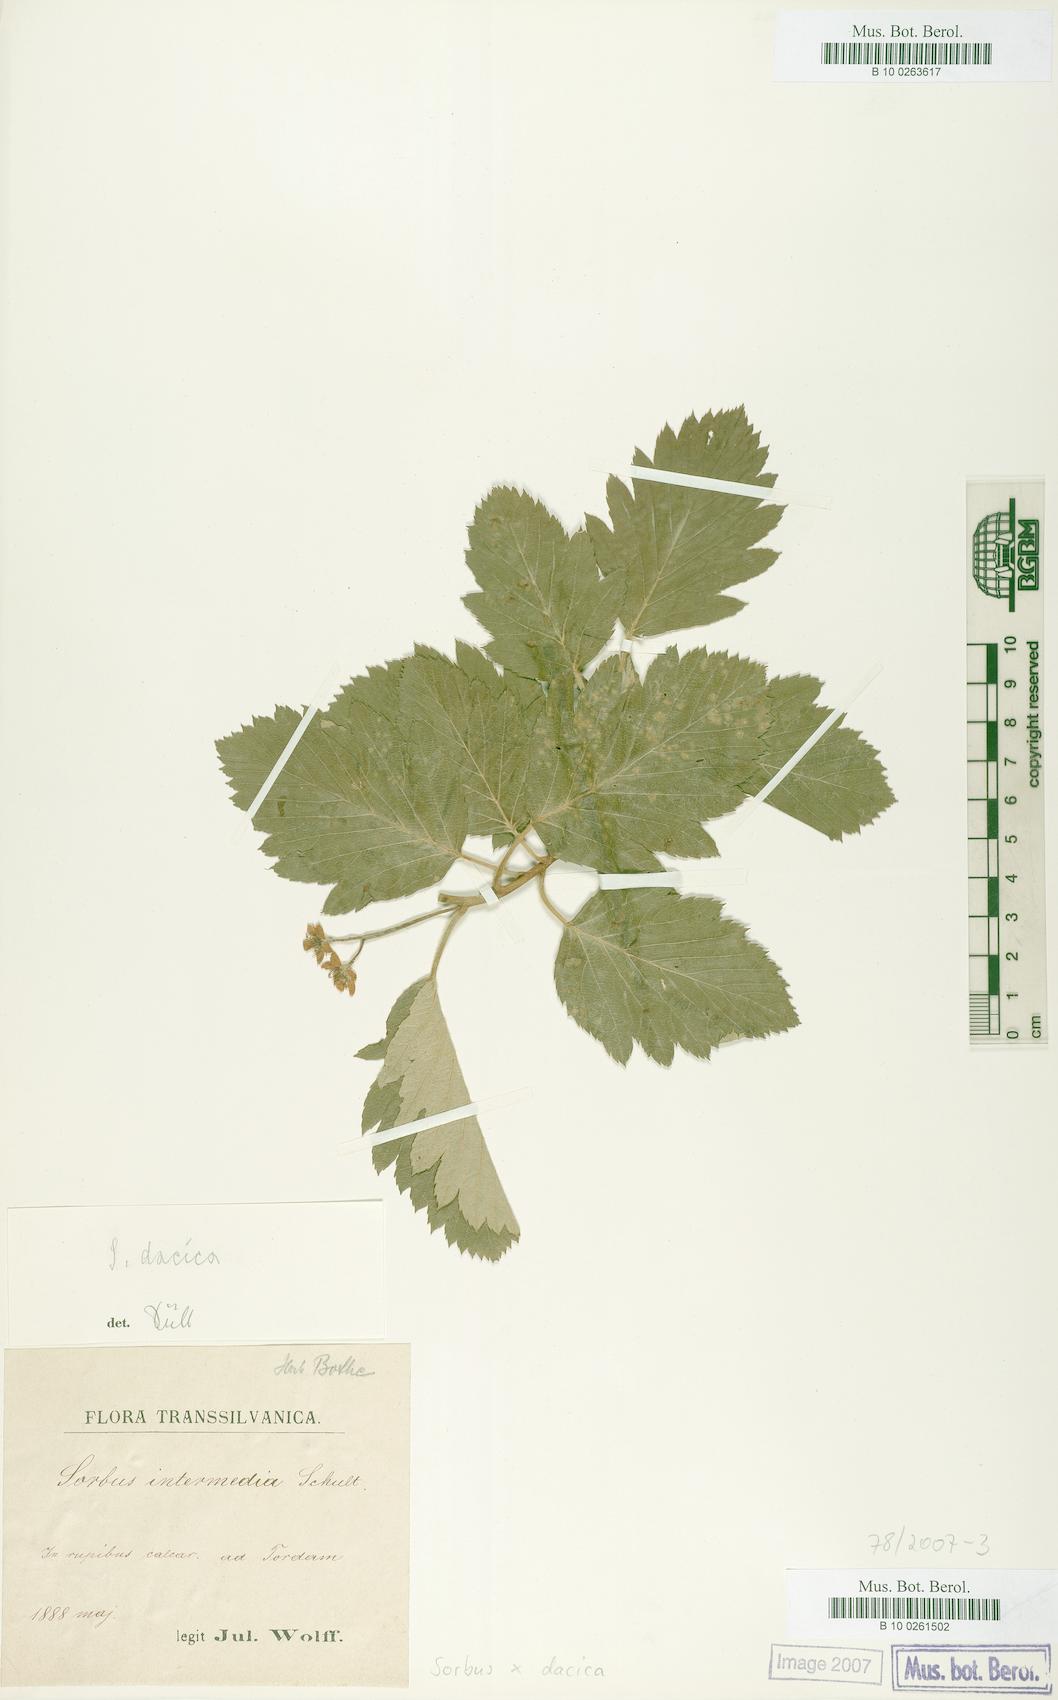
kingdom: Plantae
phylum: Tracheophyta
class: Magnoliopsida
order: Rosales
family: Rosaceae
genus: Hedlundia
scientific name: Hedlundia semipinnata
